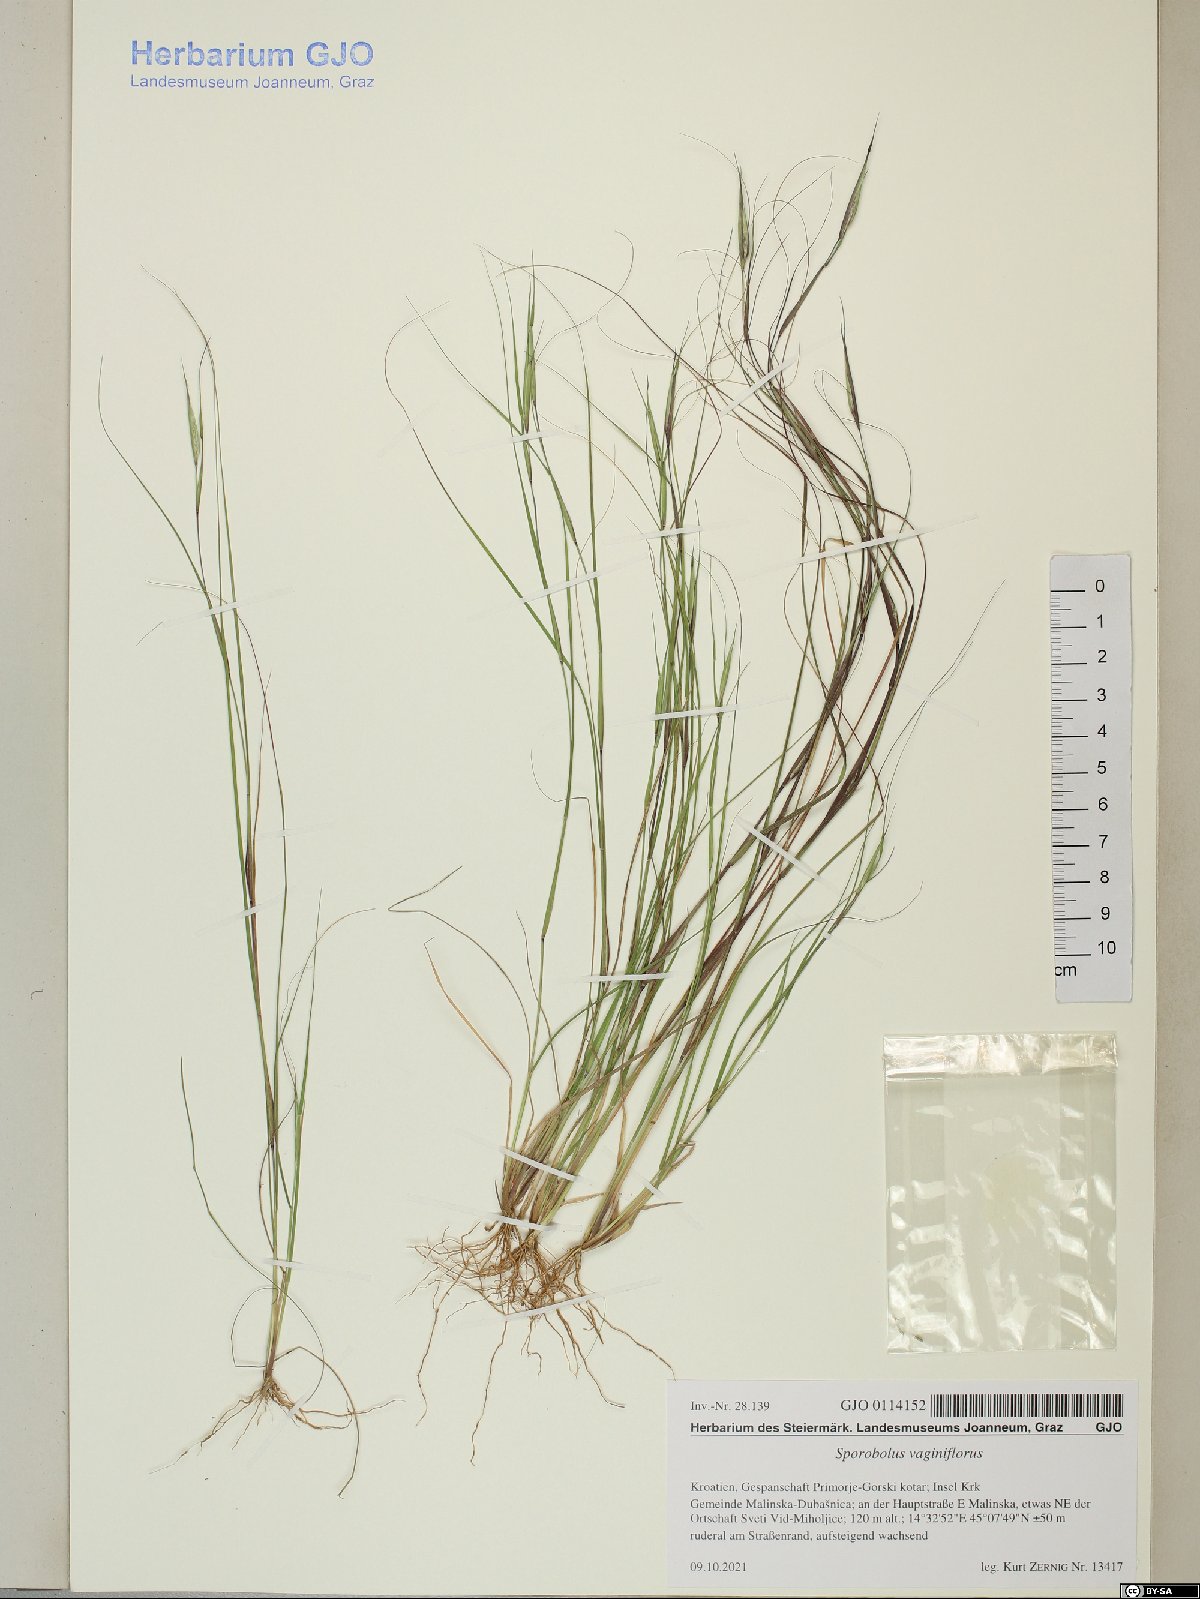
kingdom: Plantae
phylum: Tracheophyta
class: Liliopsida
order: Poales
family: Poaceae
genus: Sporobolus
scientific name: Sporobolus vaginiflorus
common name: Poverty dropseed
